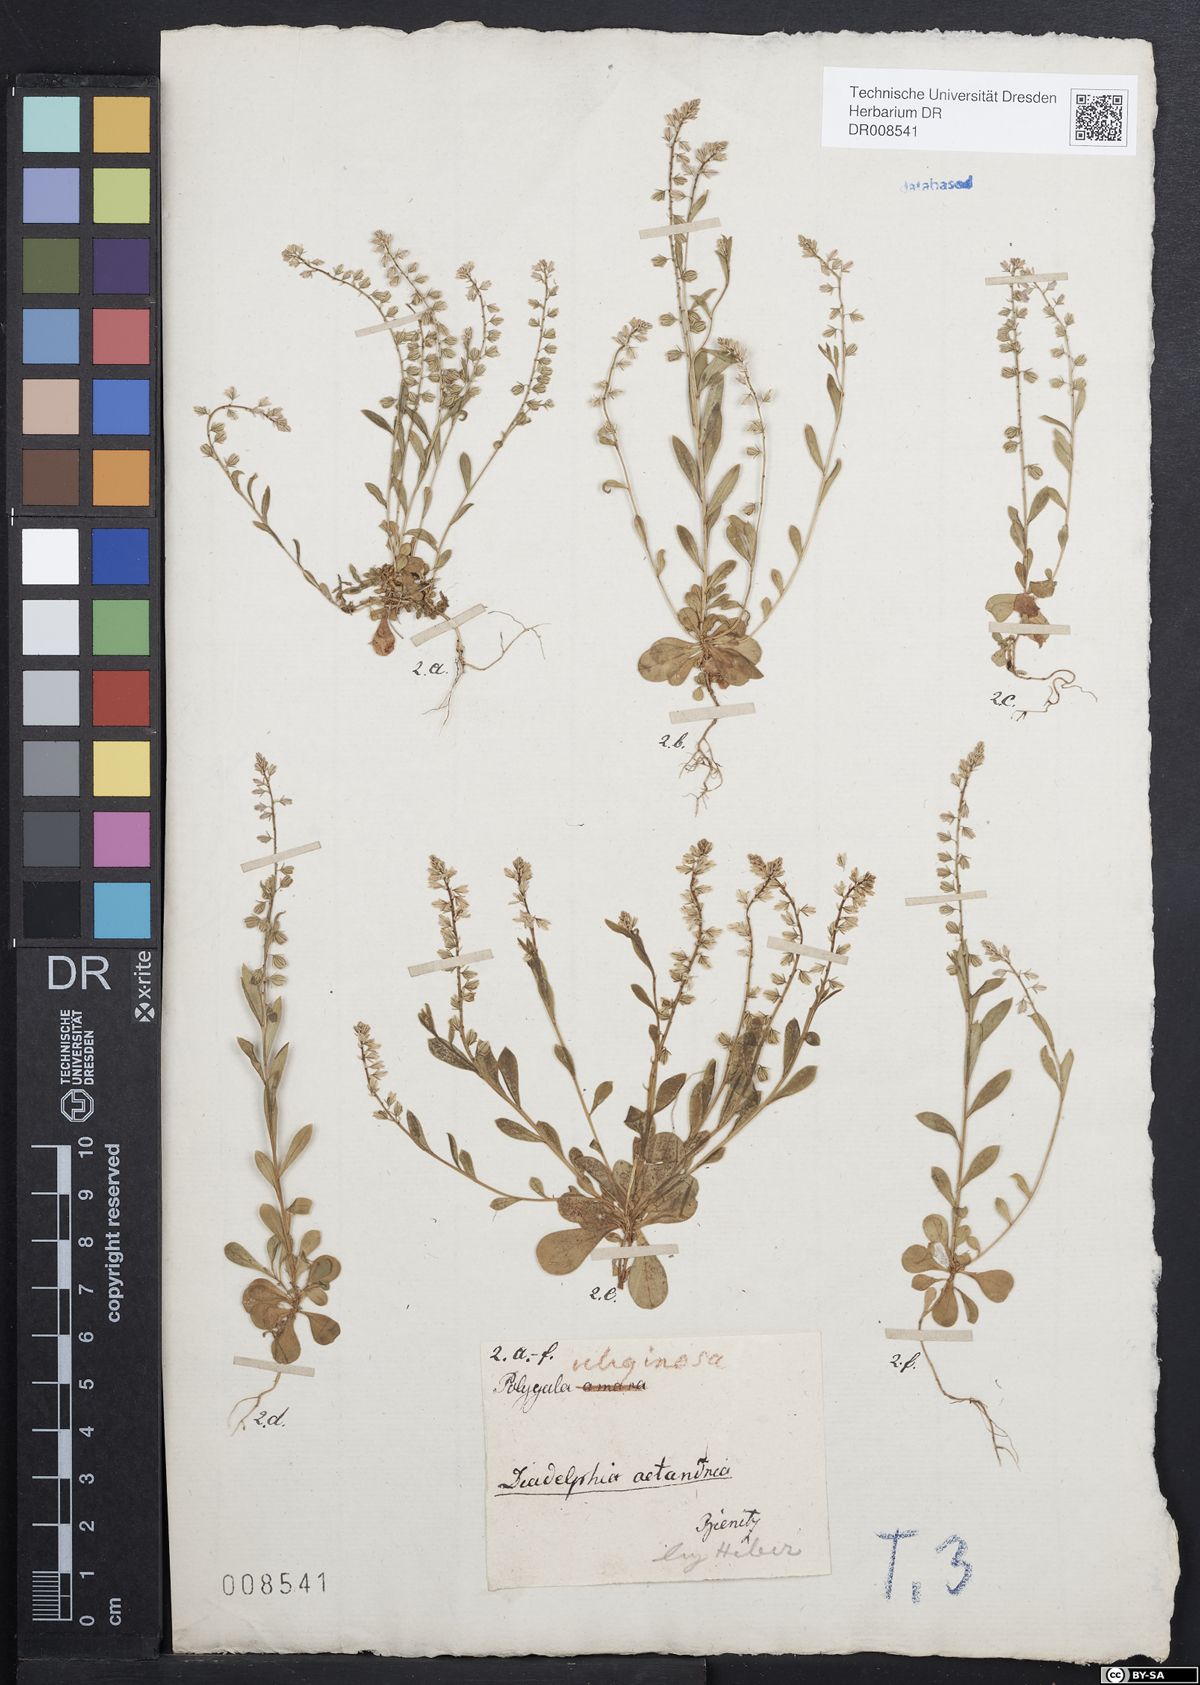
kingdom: Plantae
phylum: Tracheophyta
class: Magnoliopsida
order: Fabales
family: Polygalaceae
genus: Polygala
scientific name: Polygala amarella
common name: Dwarf milkwort
